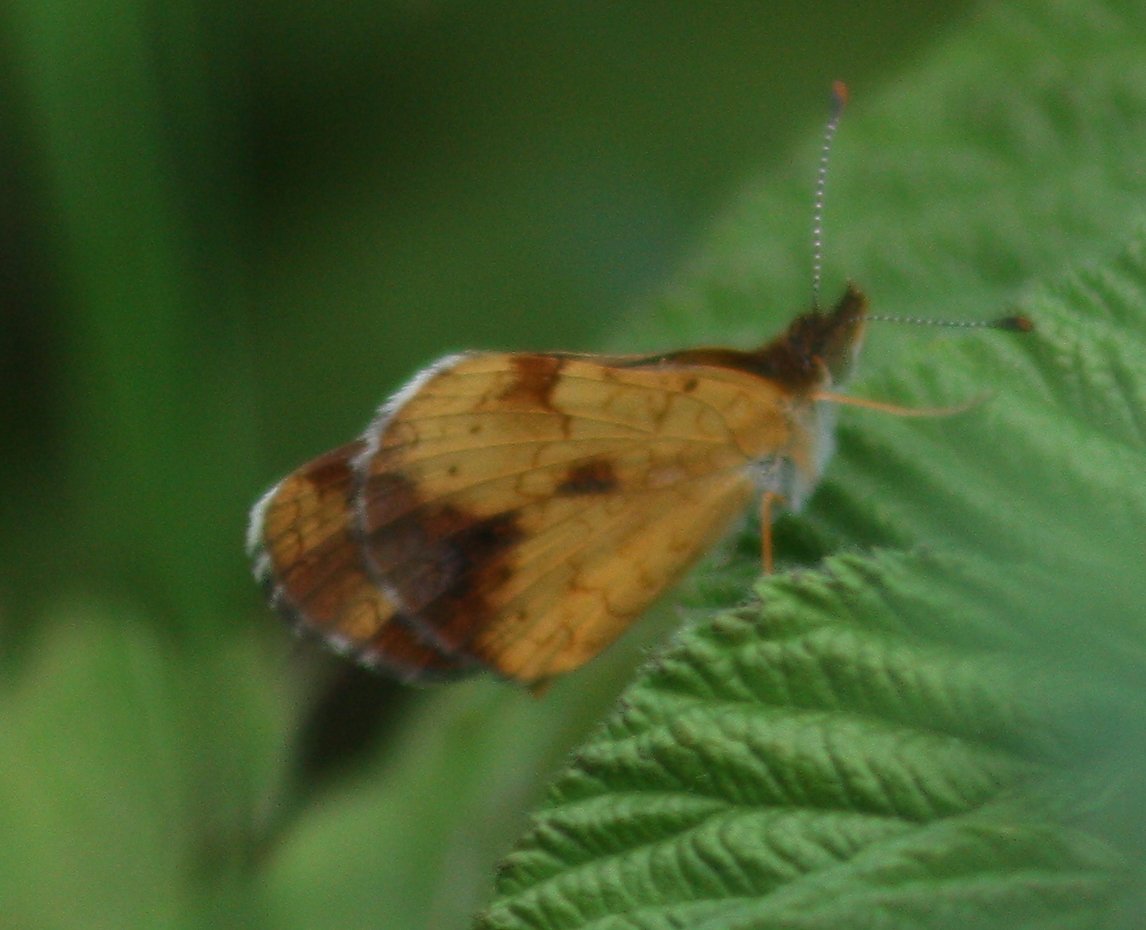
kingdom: Animalia
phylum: Arthropoda
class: Insecta
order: Lepidoptera
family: Nymphalidae
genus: Phyciodes
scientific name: Phyciodes tharos
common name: Northern Crescent
